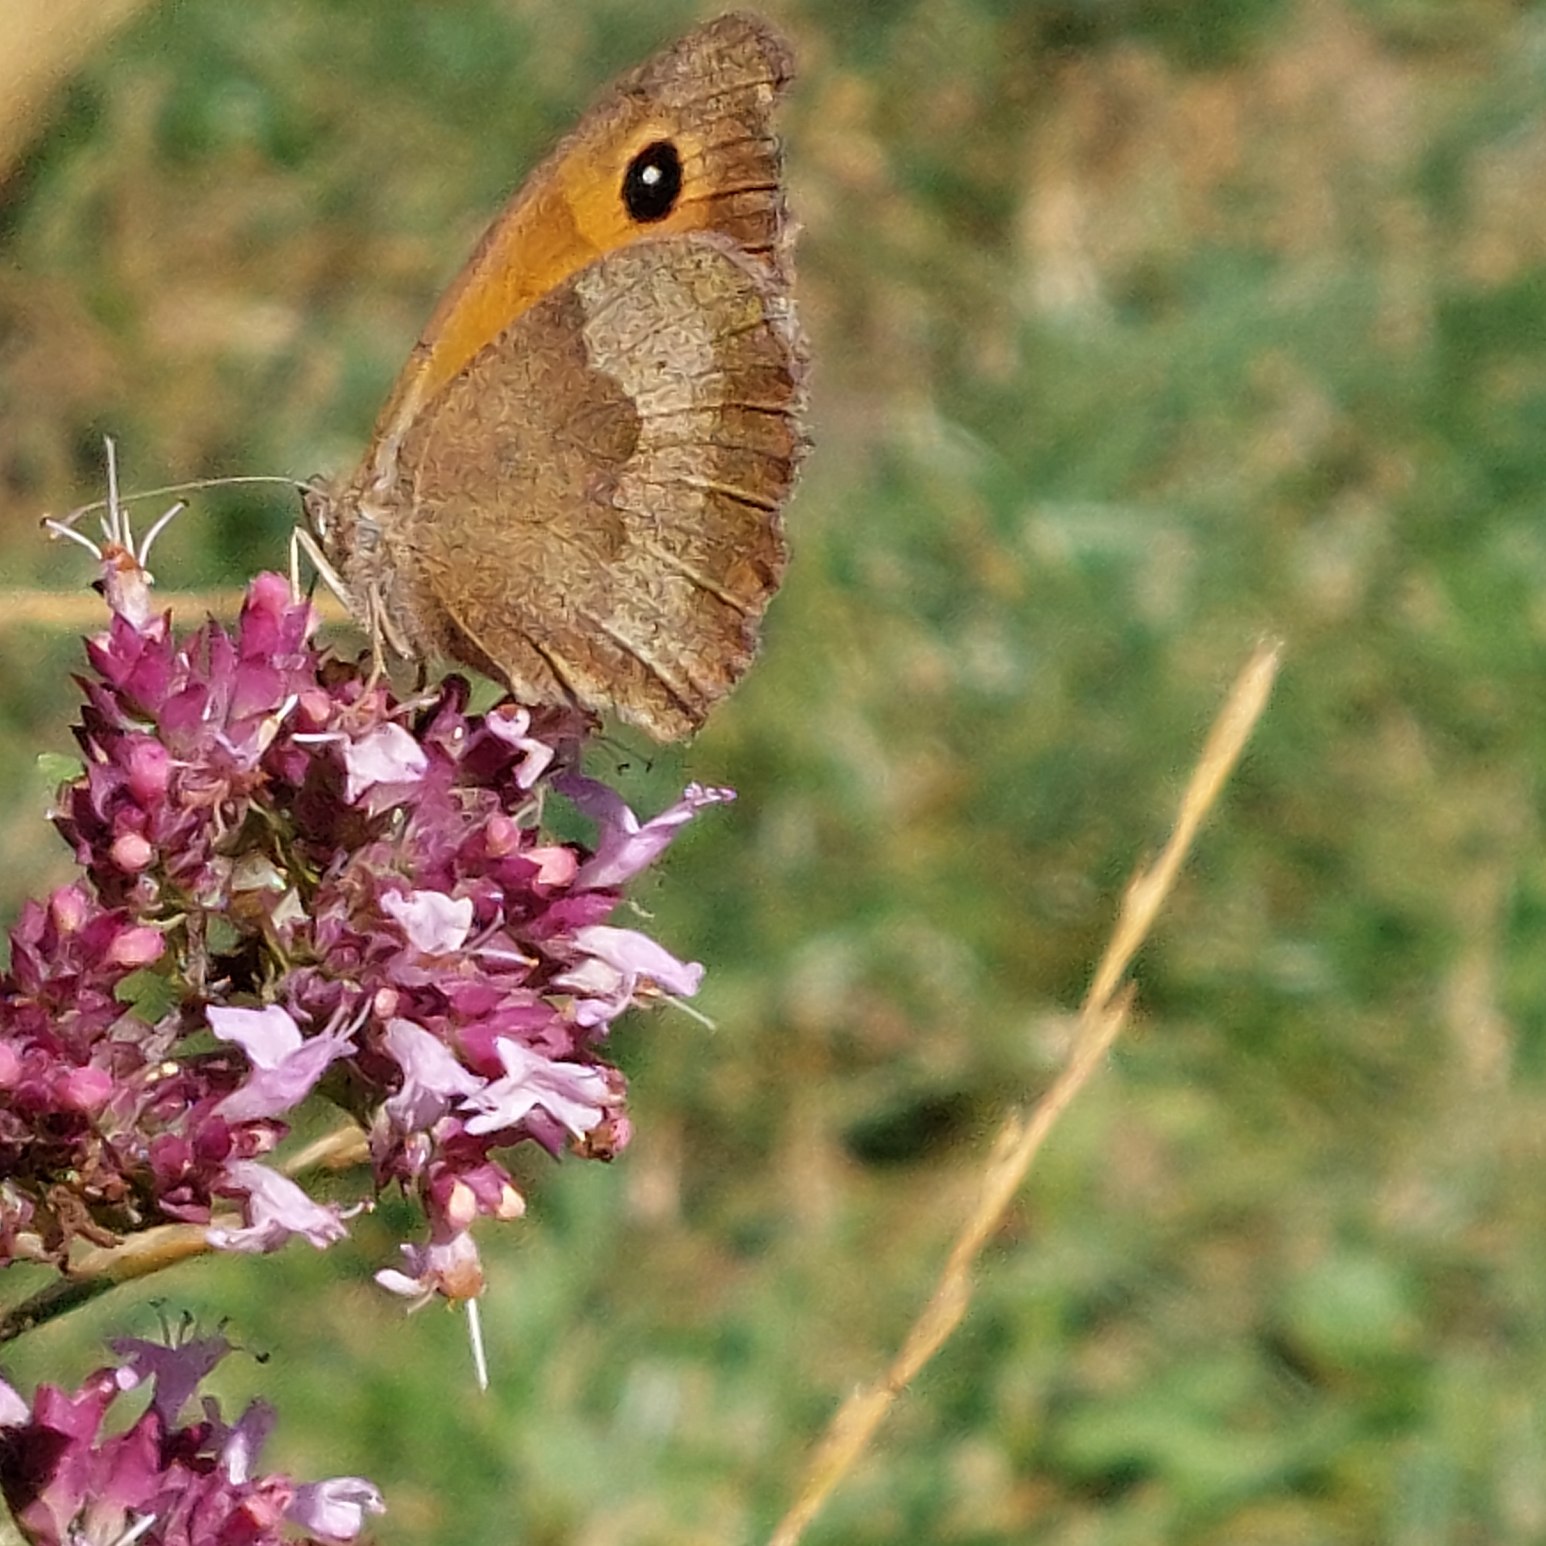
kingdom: Animalia
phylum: Arthropoda
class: Insecta
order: Lepidoptera
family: Nymphalidae
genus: Maniola
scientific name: Maniola jurtina
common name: Græsrandøje
